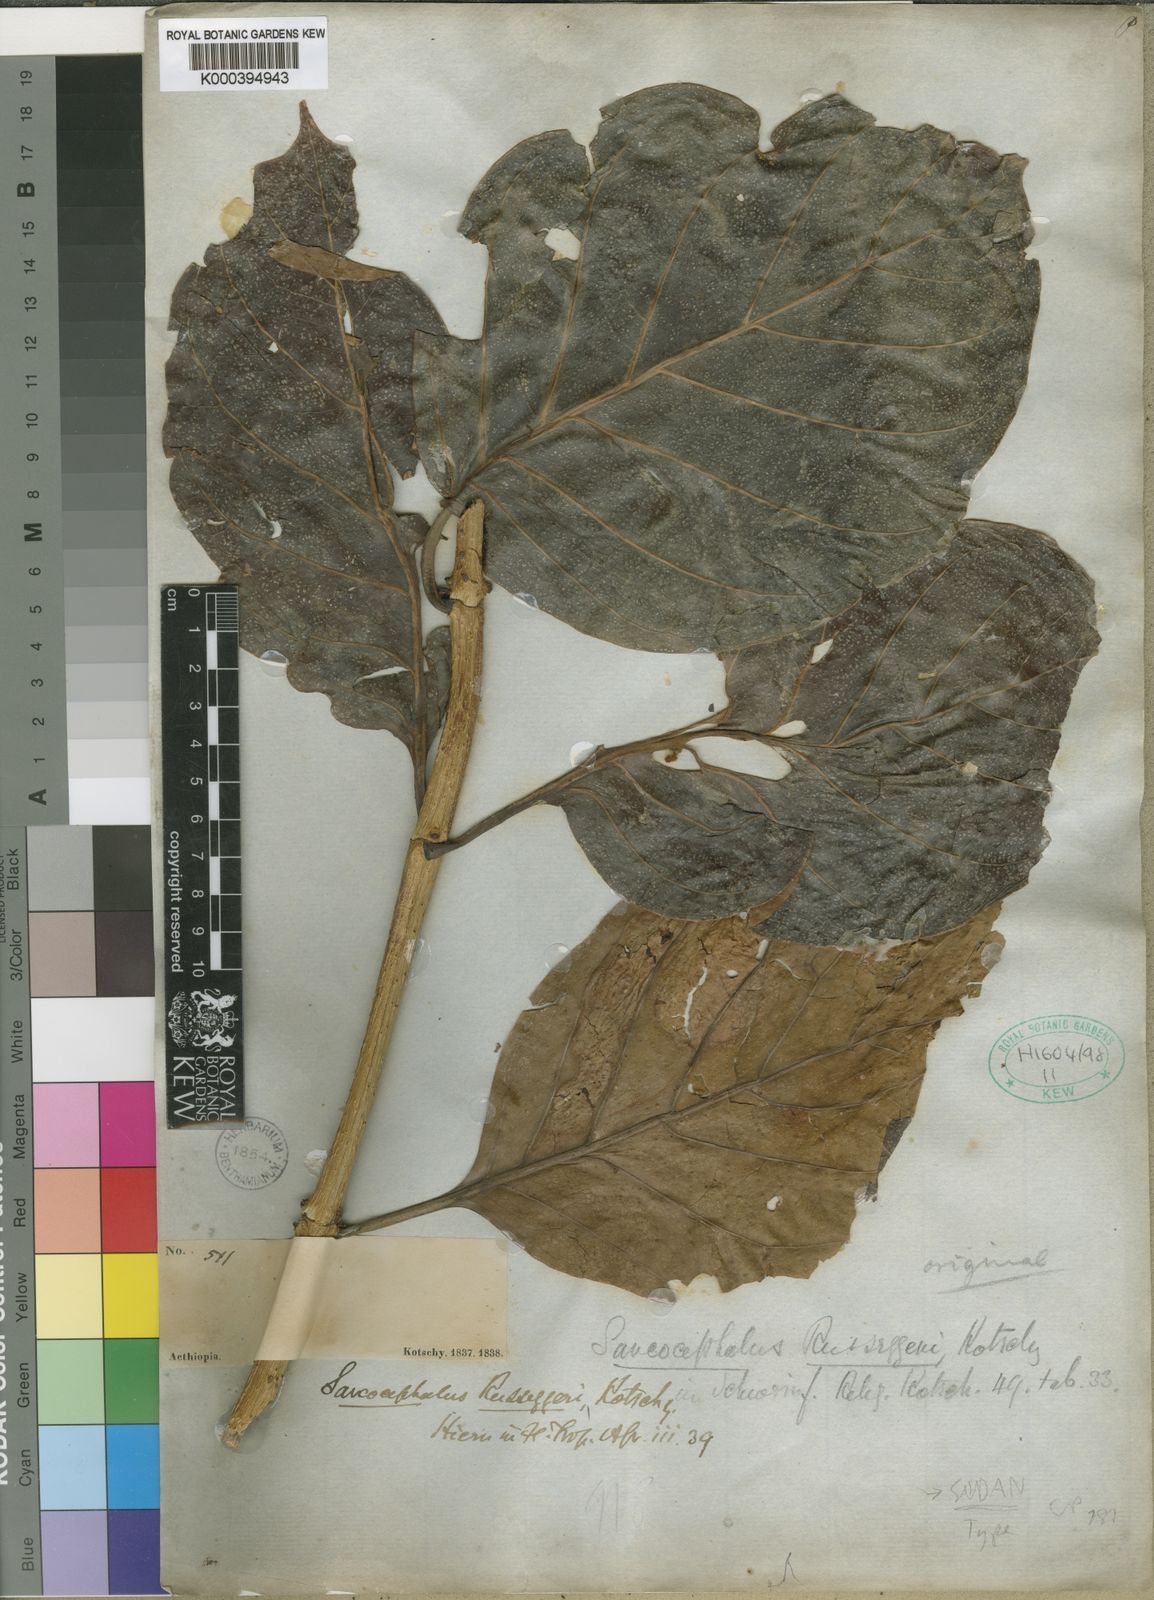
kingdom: Plantae
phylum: Tracheophyta
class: Magnoliopsida
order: Gentianales
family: Rubiaceae
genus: Nauclea
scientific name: Nauclea latifolia
